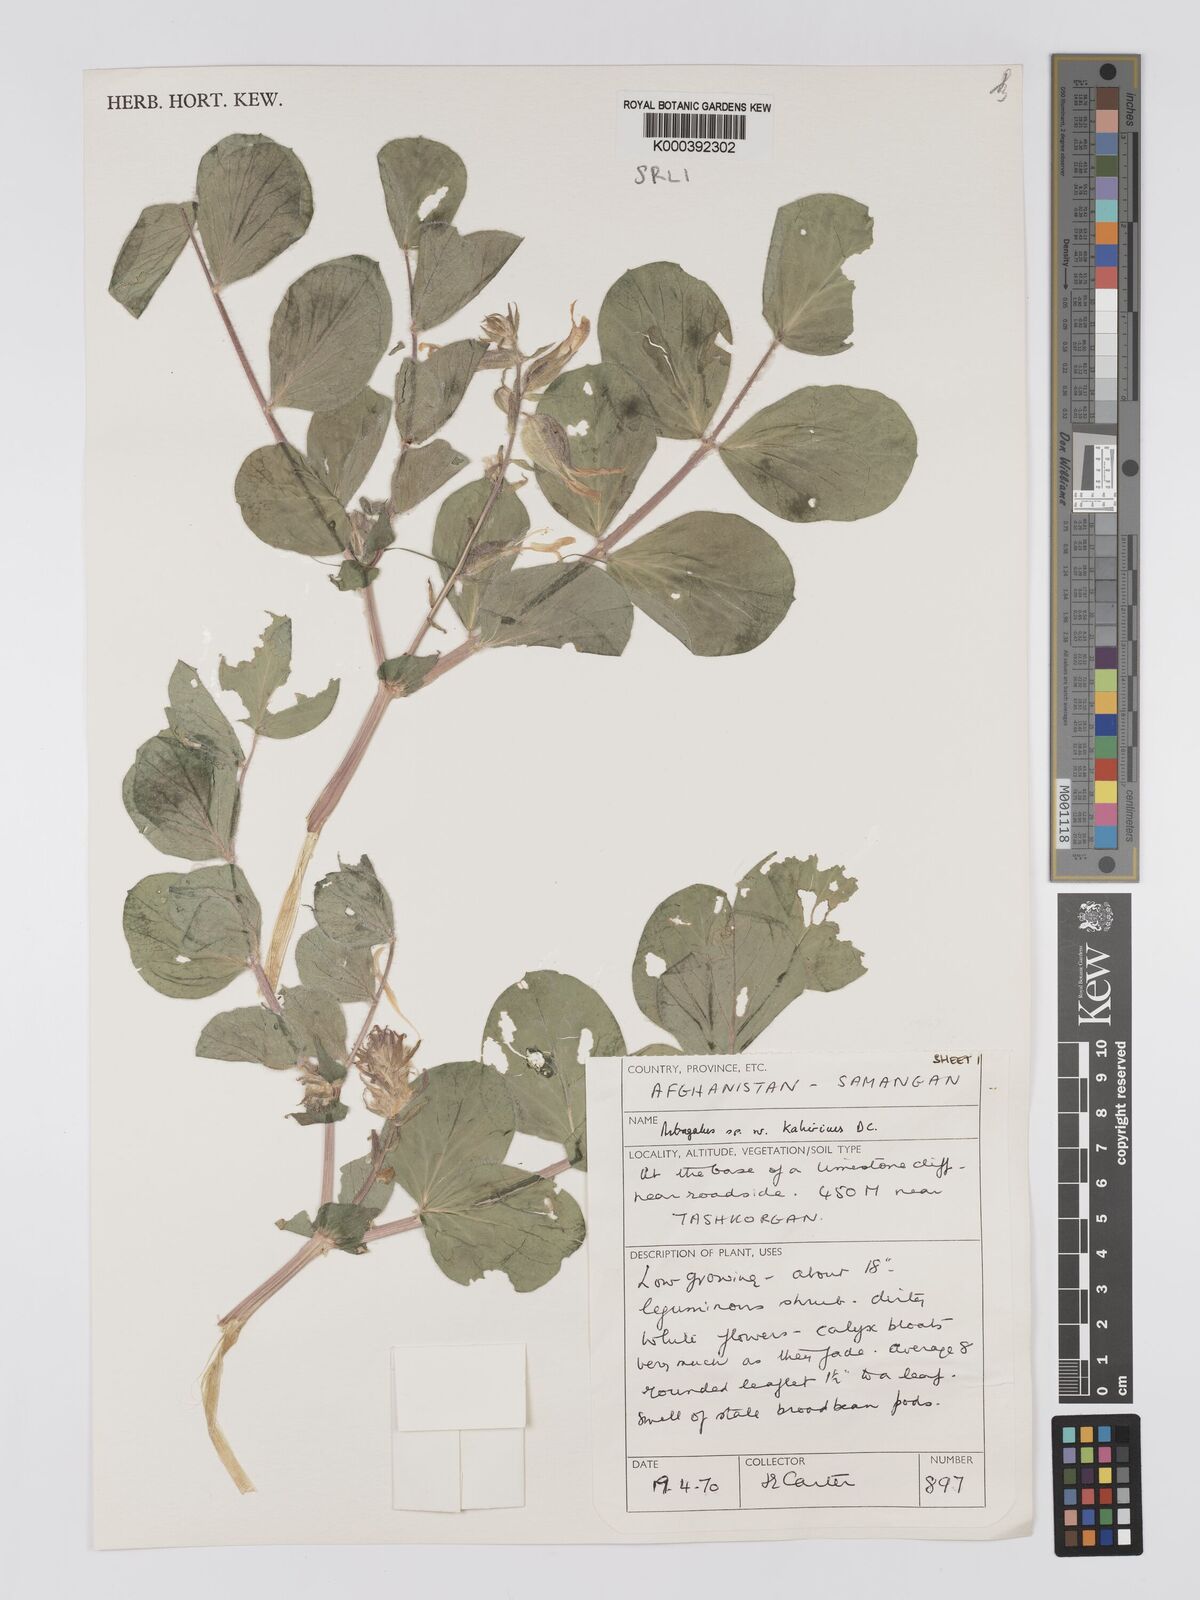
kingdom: Plantae
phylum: Tracheophyta
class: Magnoliopsida
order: Fabales
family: Fabaceae
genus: Astragalus
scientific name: Astragalus kahiricus
